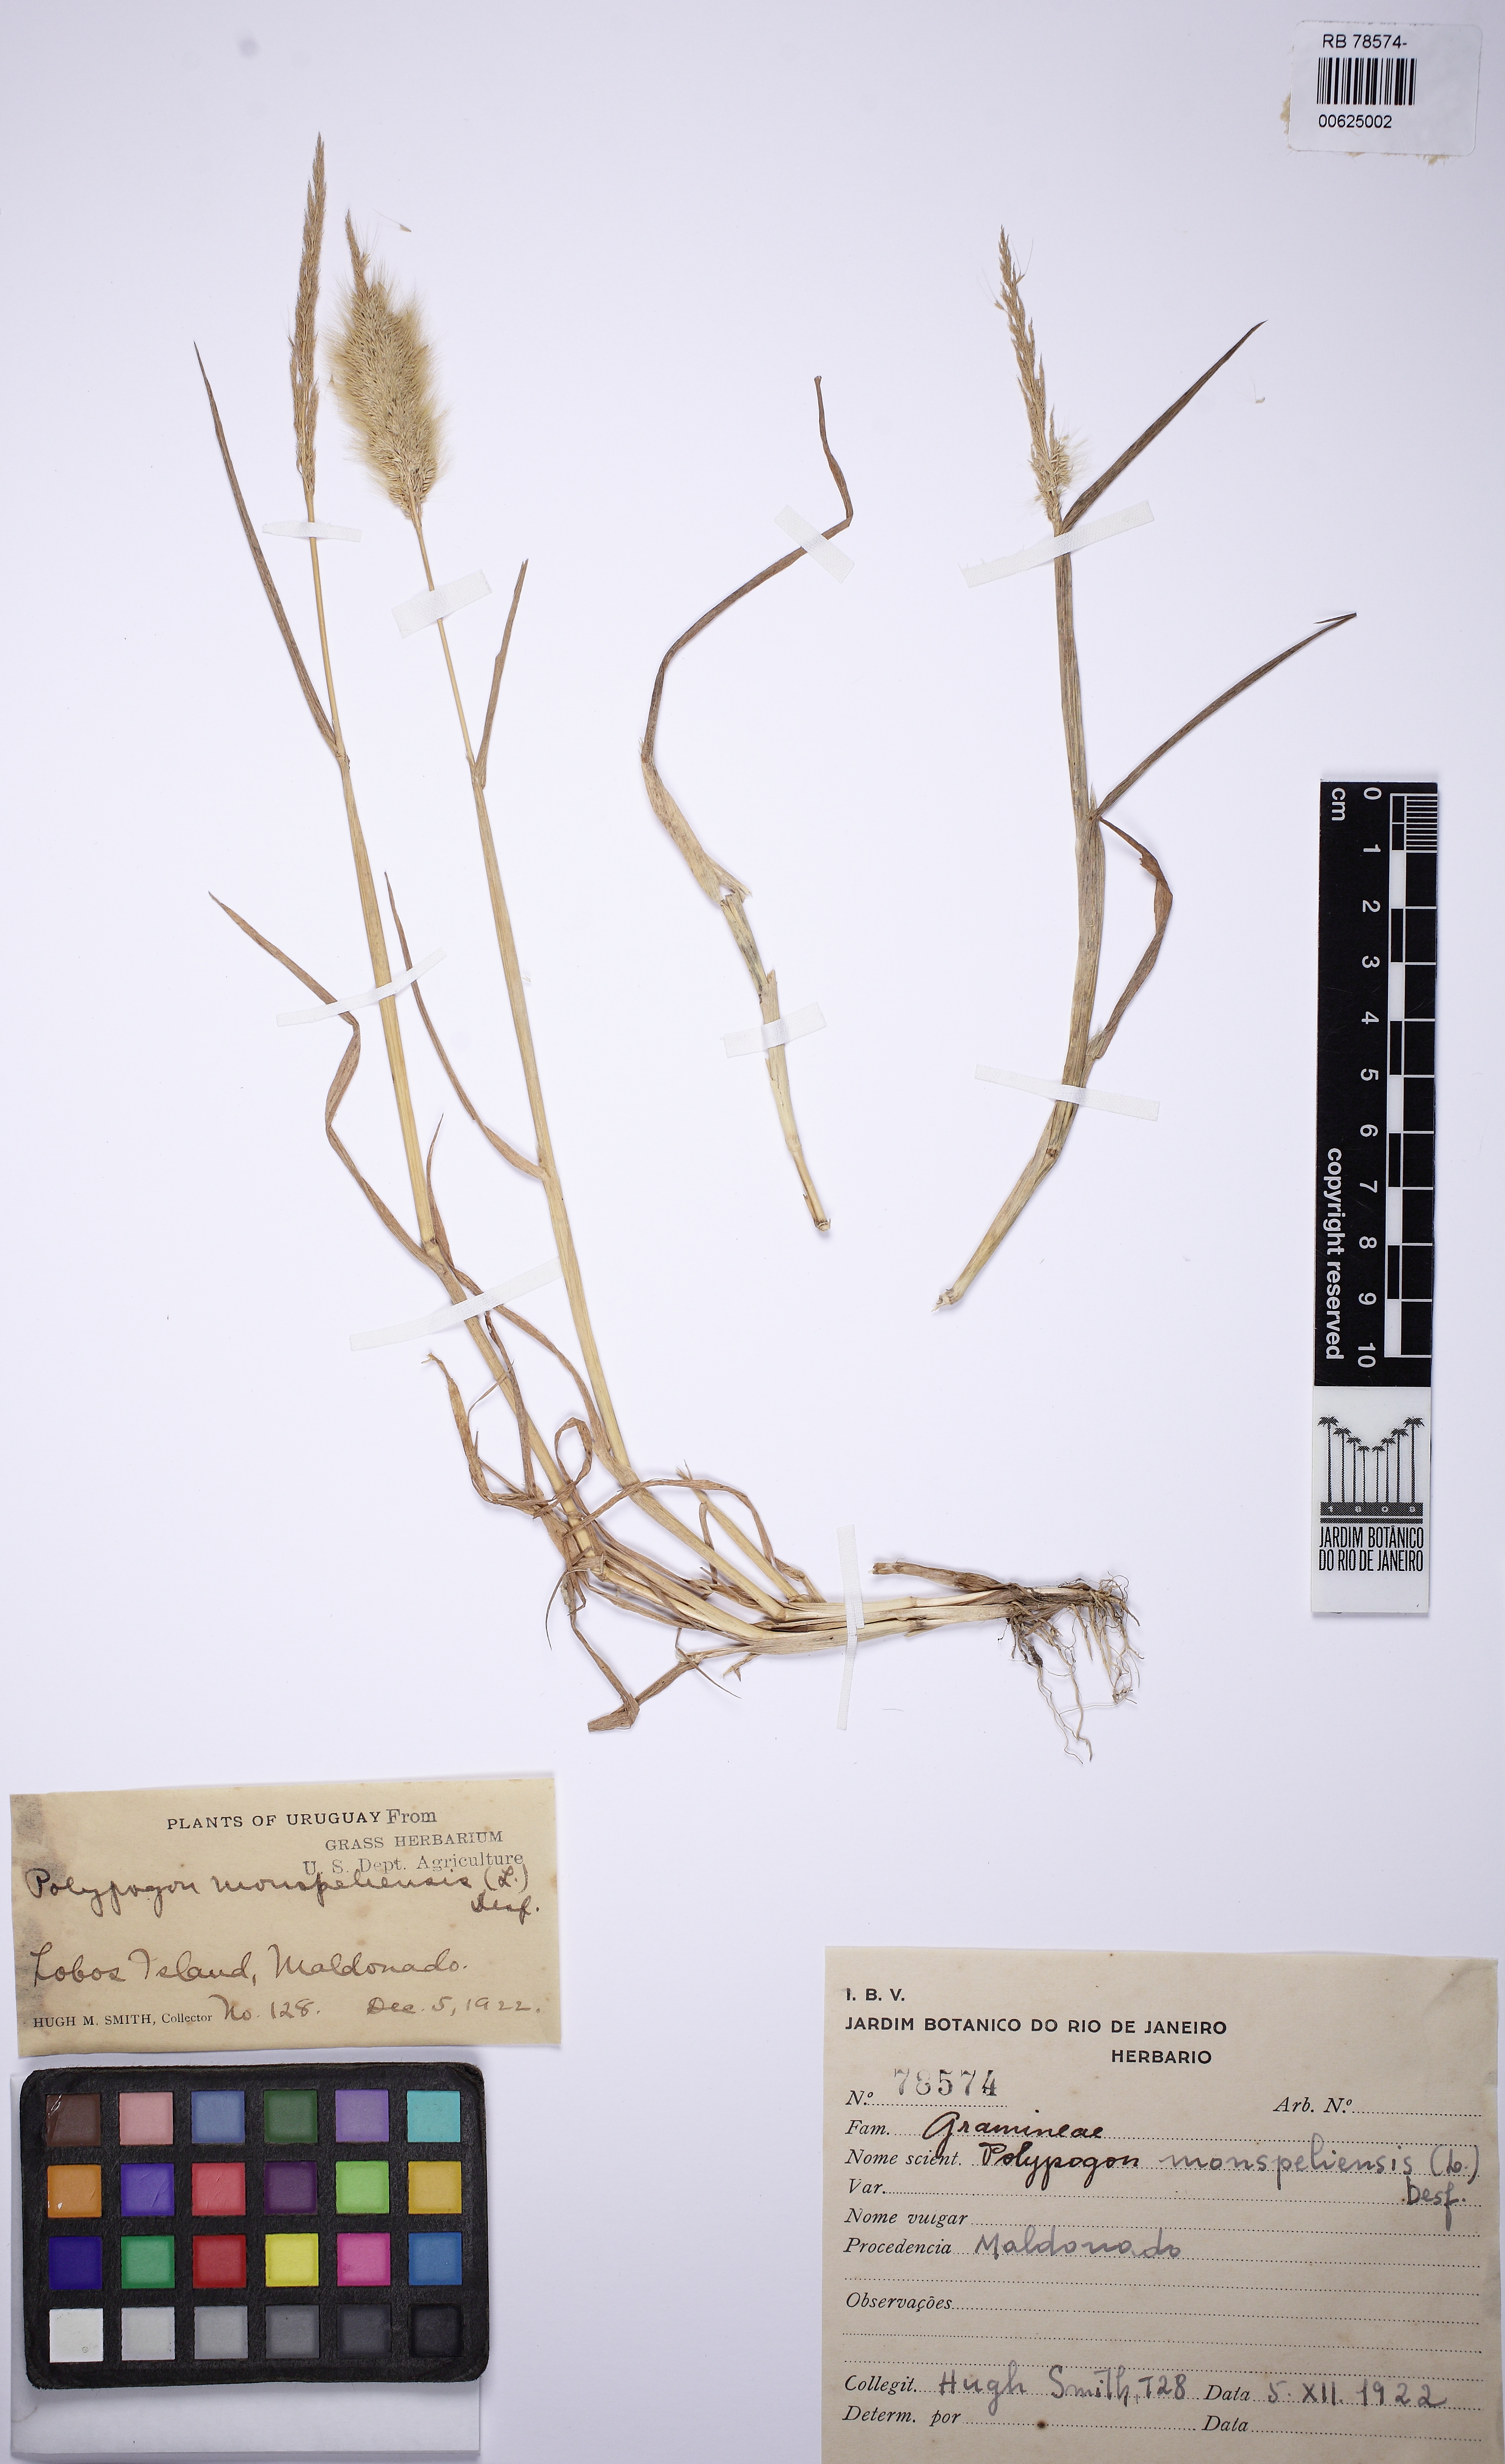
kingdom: Plantae
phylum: Tracheophyta
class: Liliopsida
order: Poales
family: Poaceae
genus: Polypogon
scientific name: Polypogon monspeliensis
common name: Annual rabbitsfoot grass
